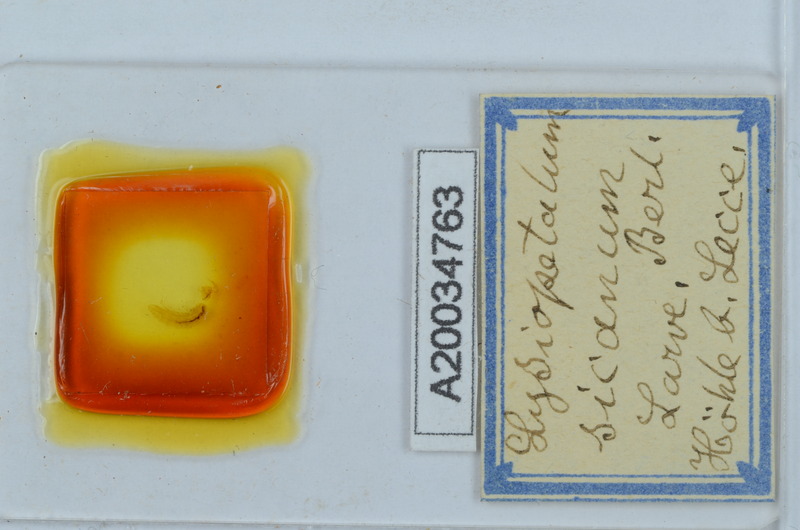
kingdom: Animalia
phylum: Arthropoda
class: Diplopoda
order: Callipodida
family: Schizopetalidae
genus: Acanthopetalum
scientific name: Acanthopetalum richii
